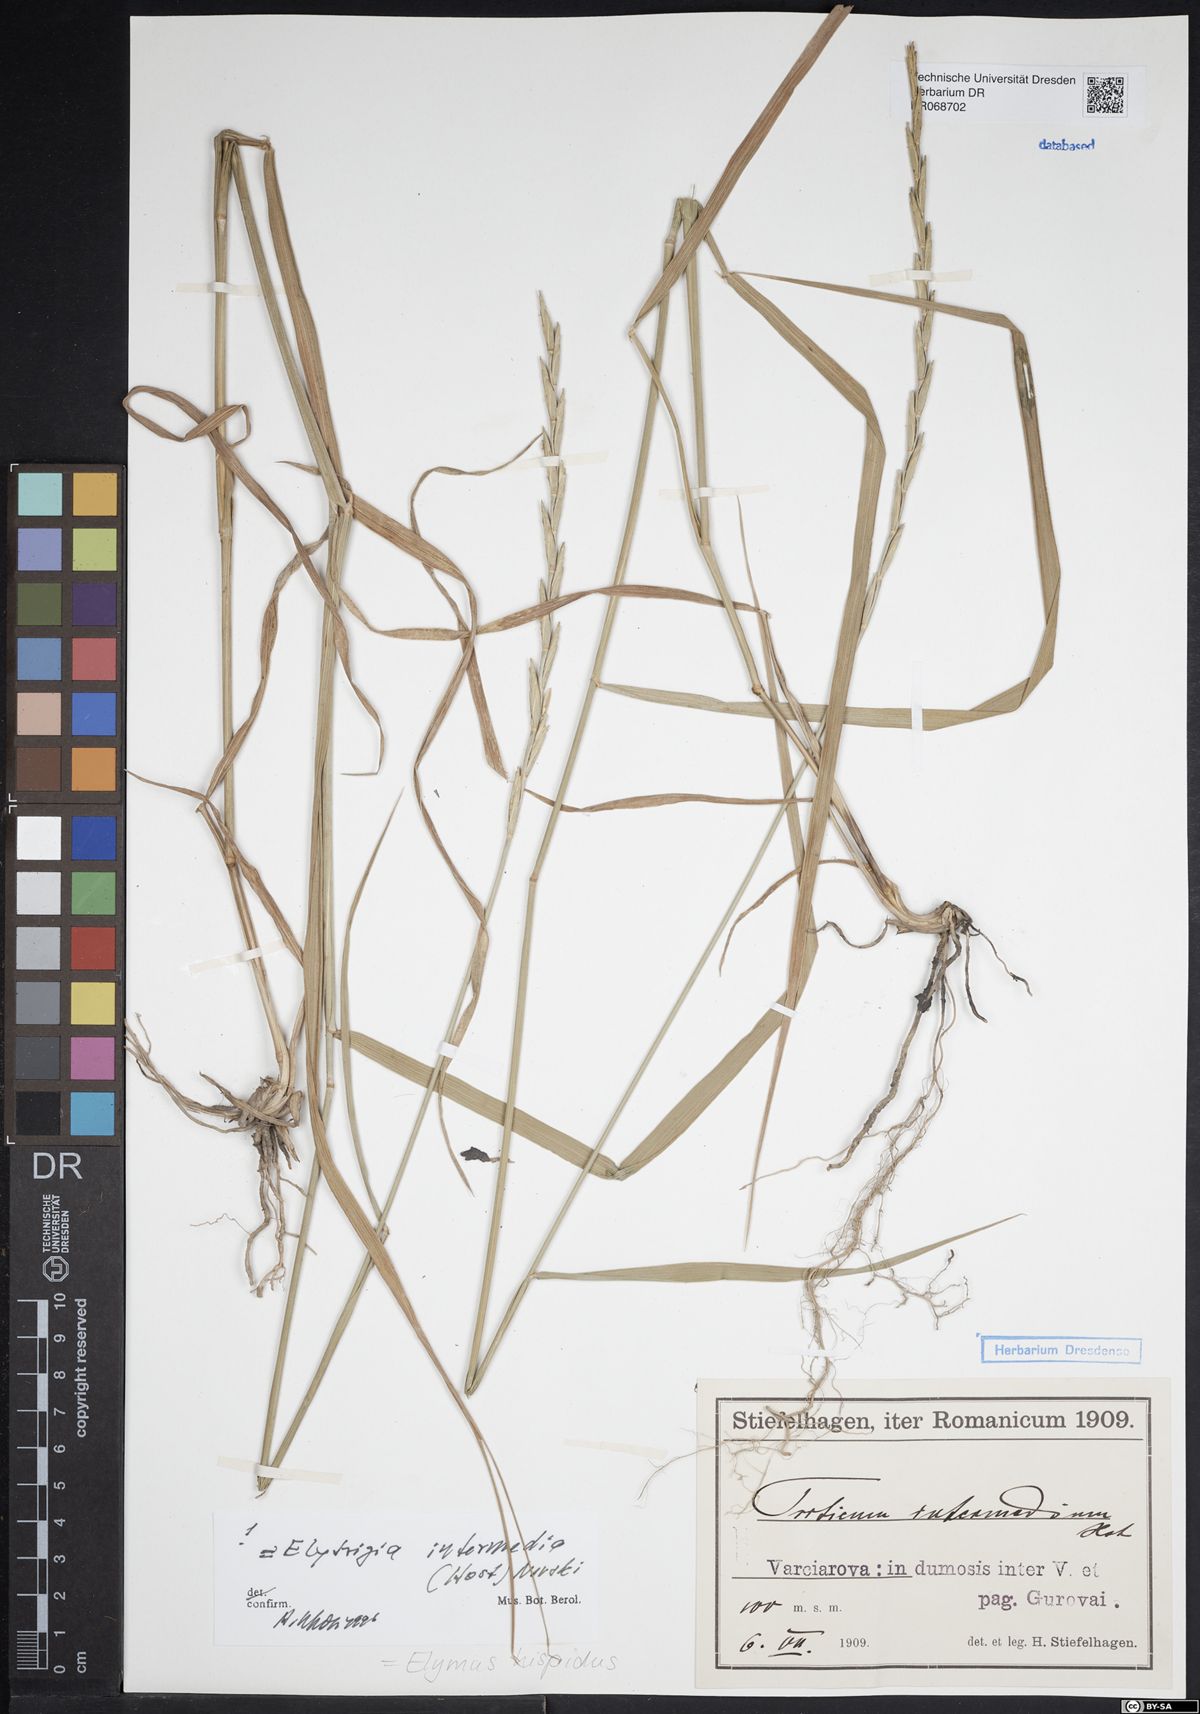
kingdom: Plantae
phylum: Tracheophyta
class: Liliopsida
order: Poales
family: Poaceae
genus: Thinopyrum
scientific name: Thinopyrum intermedium
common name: Intermediate wheatgrass
